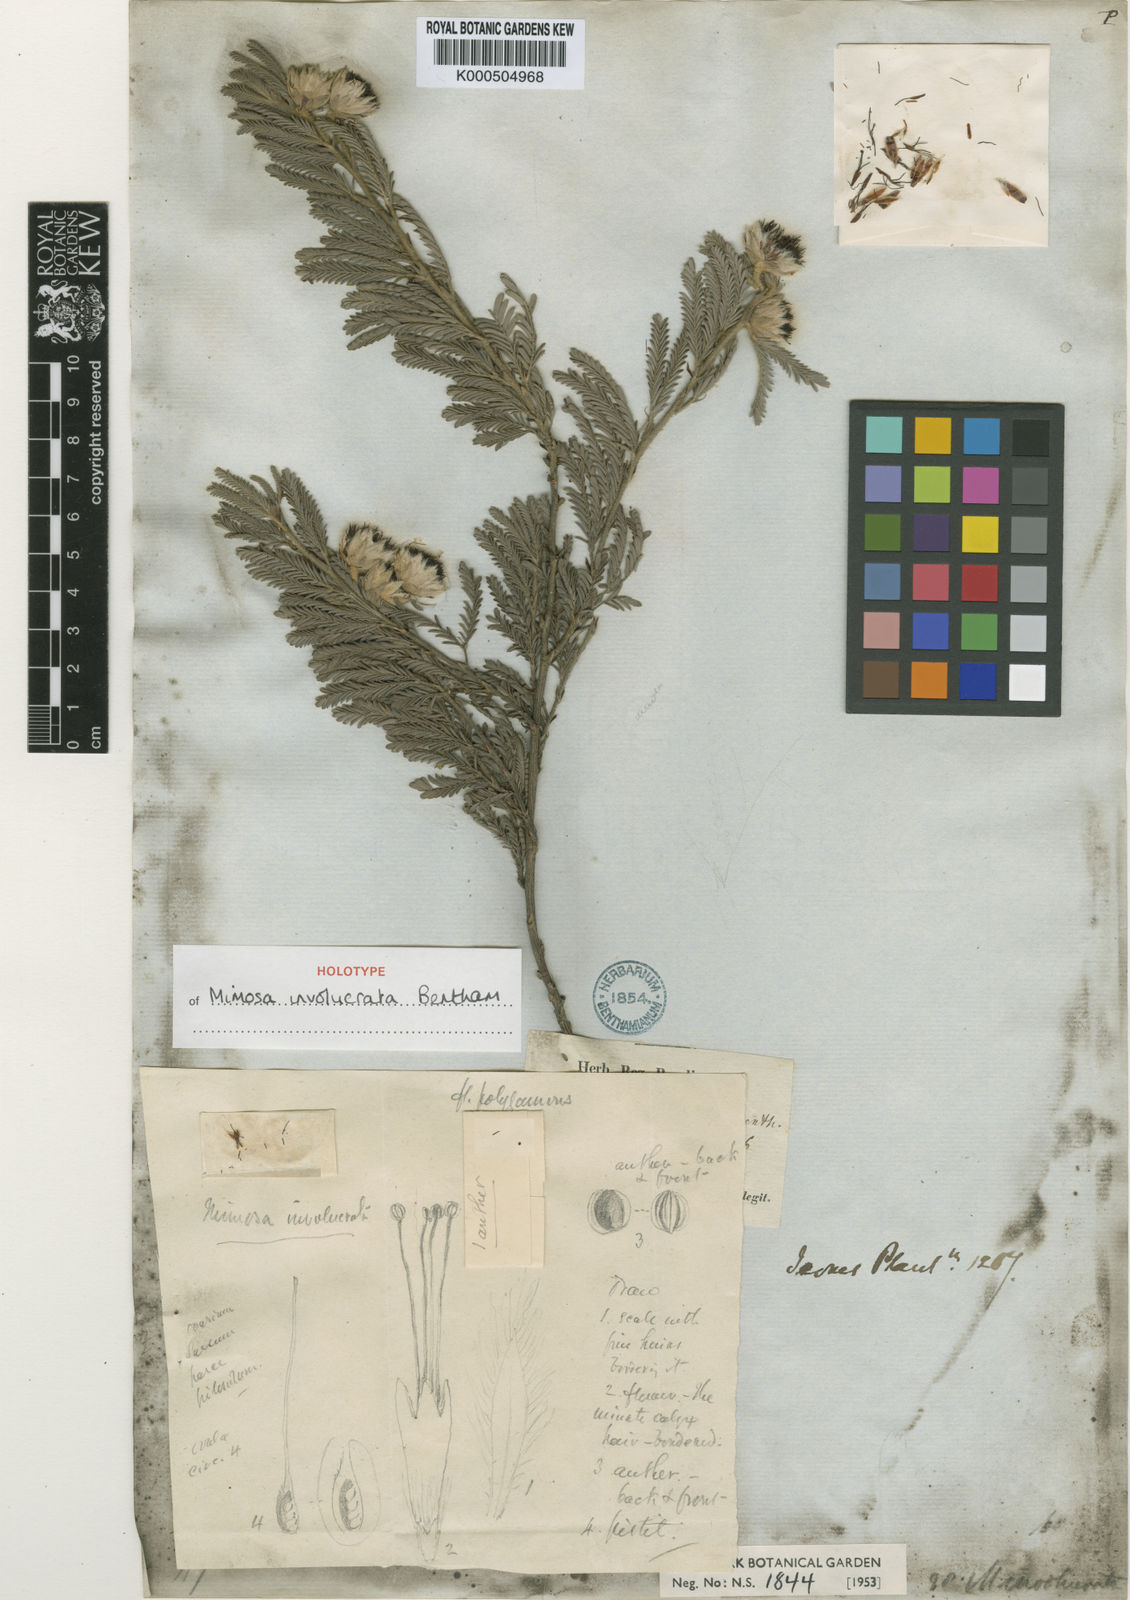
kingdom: Plantae
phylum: Tracheophyta
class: Magnoliopsida
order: Fabales
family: Fabaceae
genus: Mimosa
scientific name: Mimosa involucrata
